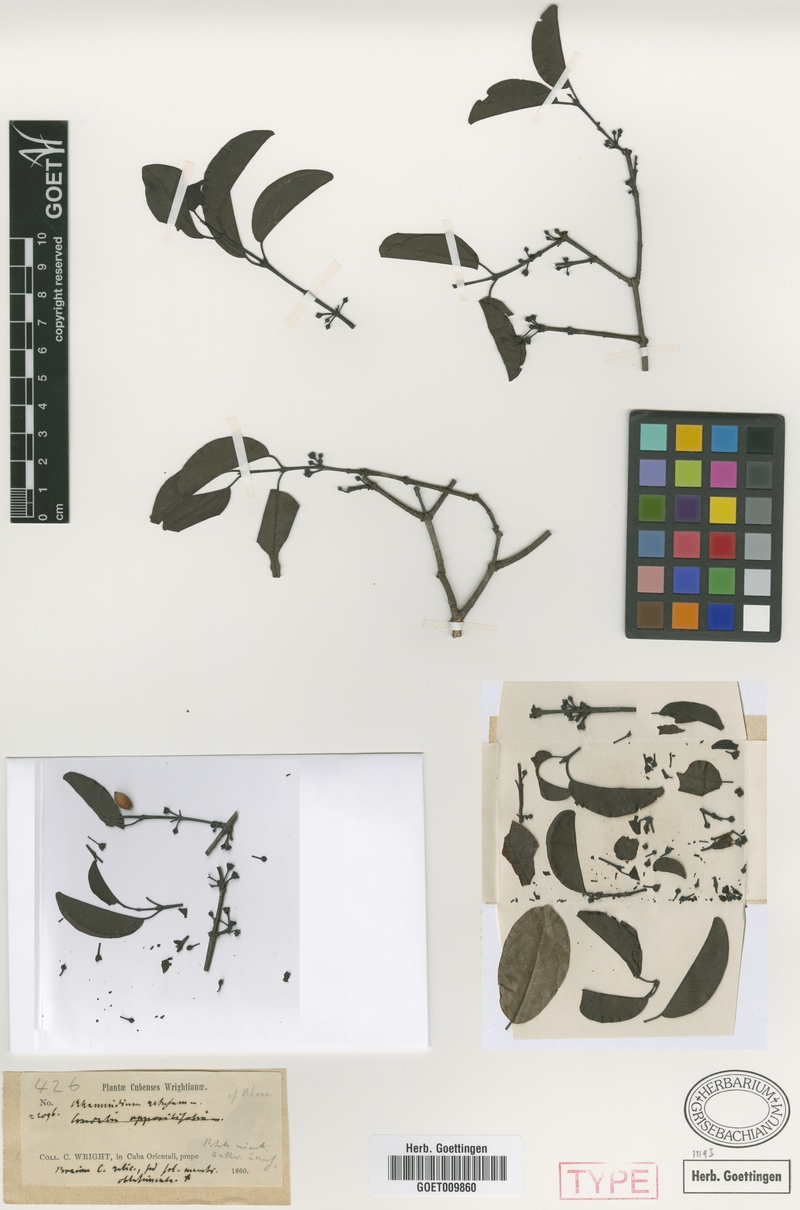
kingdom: Plantae
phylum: Tracheophyta
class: Magnoliopsida
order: Rosales
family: Rhamnaceae
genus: Reynosia
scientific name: Reynosia wrightii
